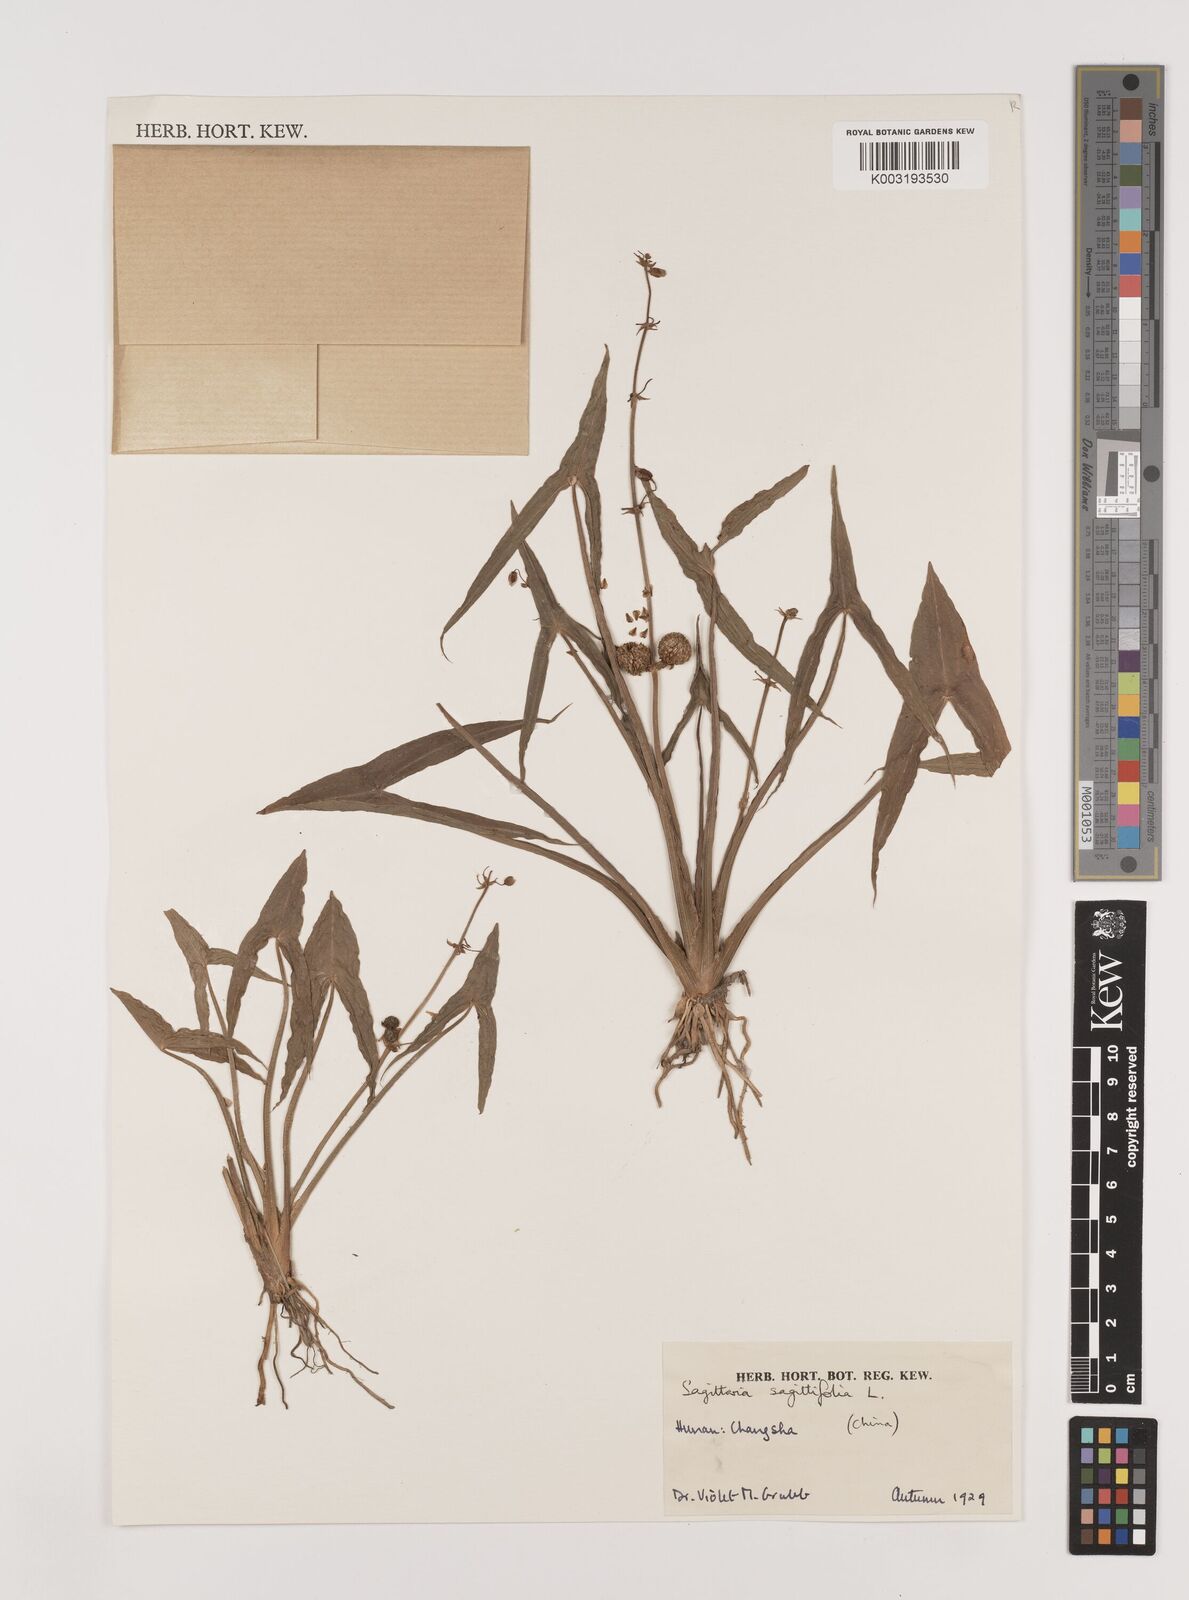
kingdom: Plantae
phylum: Tracheophyta
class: Liliopsida
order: Alismatales
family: Alismataceae
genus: Sagittaria
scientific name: Sagittaria sagittifolia
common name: Arrowhead
